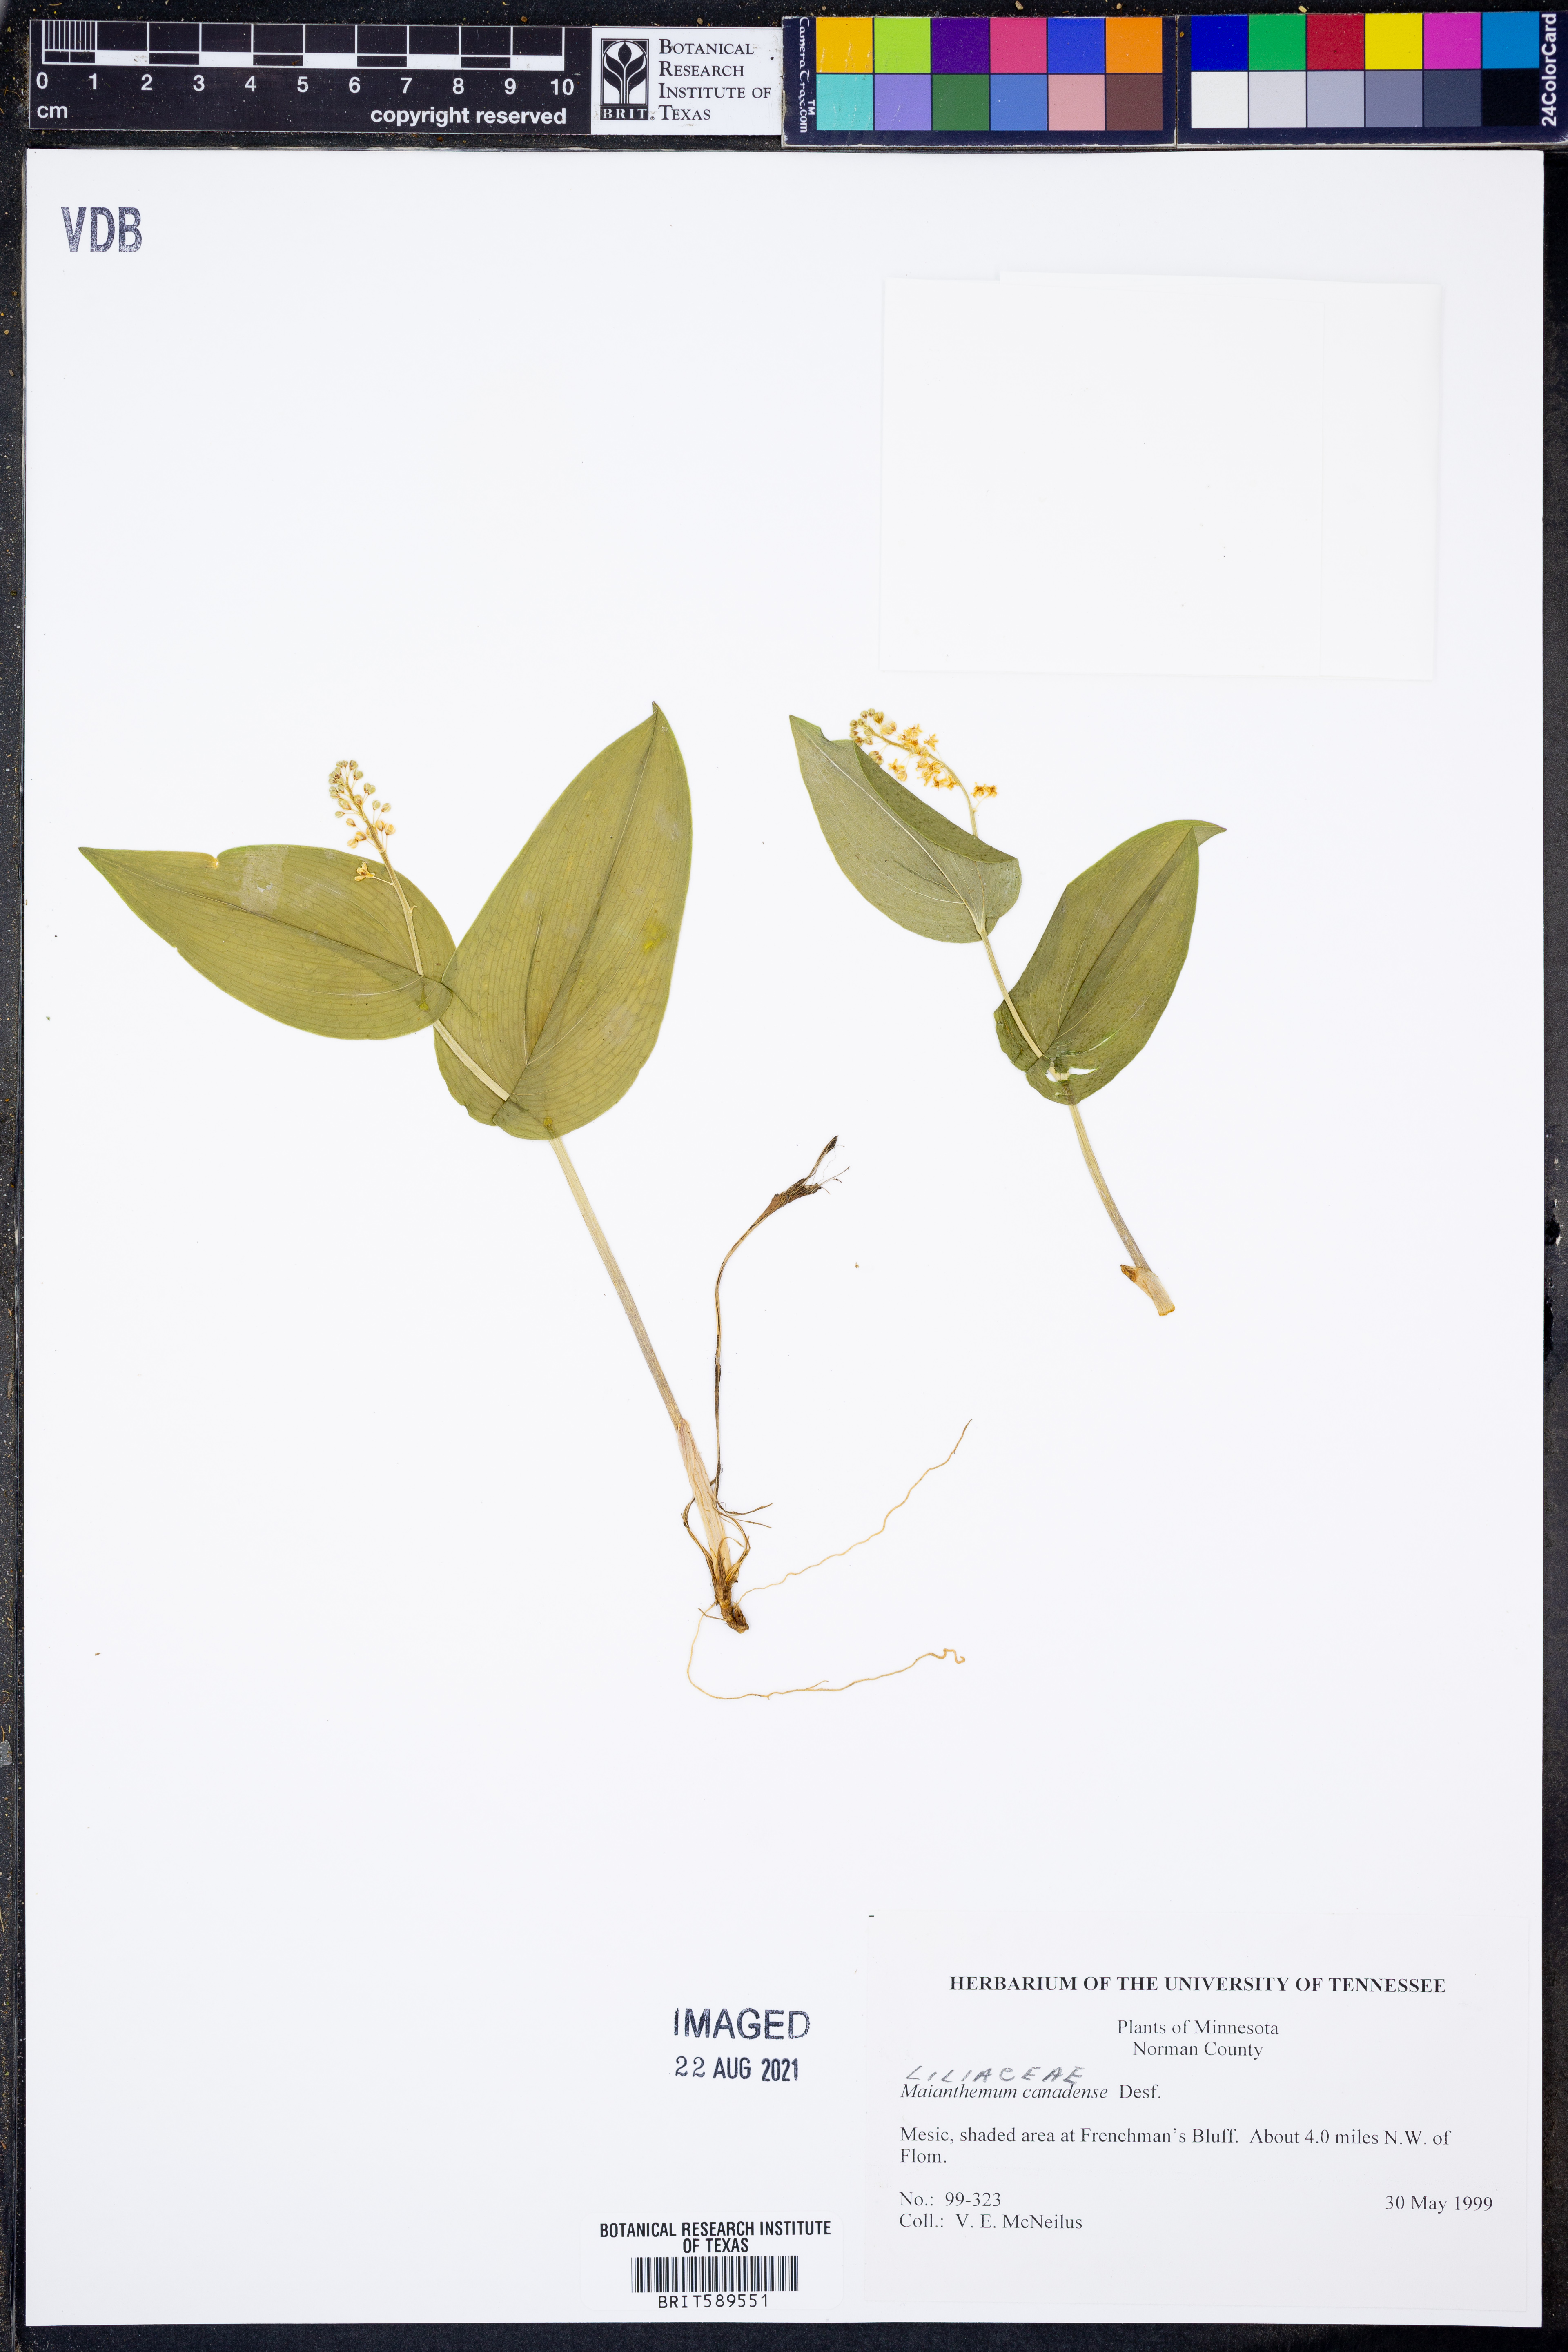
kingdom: Plantae
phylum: Tracheophyta
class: Liliopsida
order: Asparagales
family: Asparagaceae
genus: Maianthemum
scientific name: Maianthemum canadense
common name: False lily-of-the-valley
